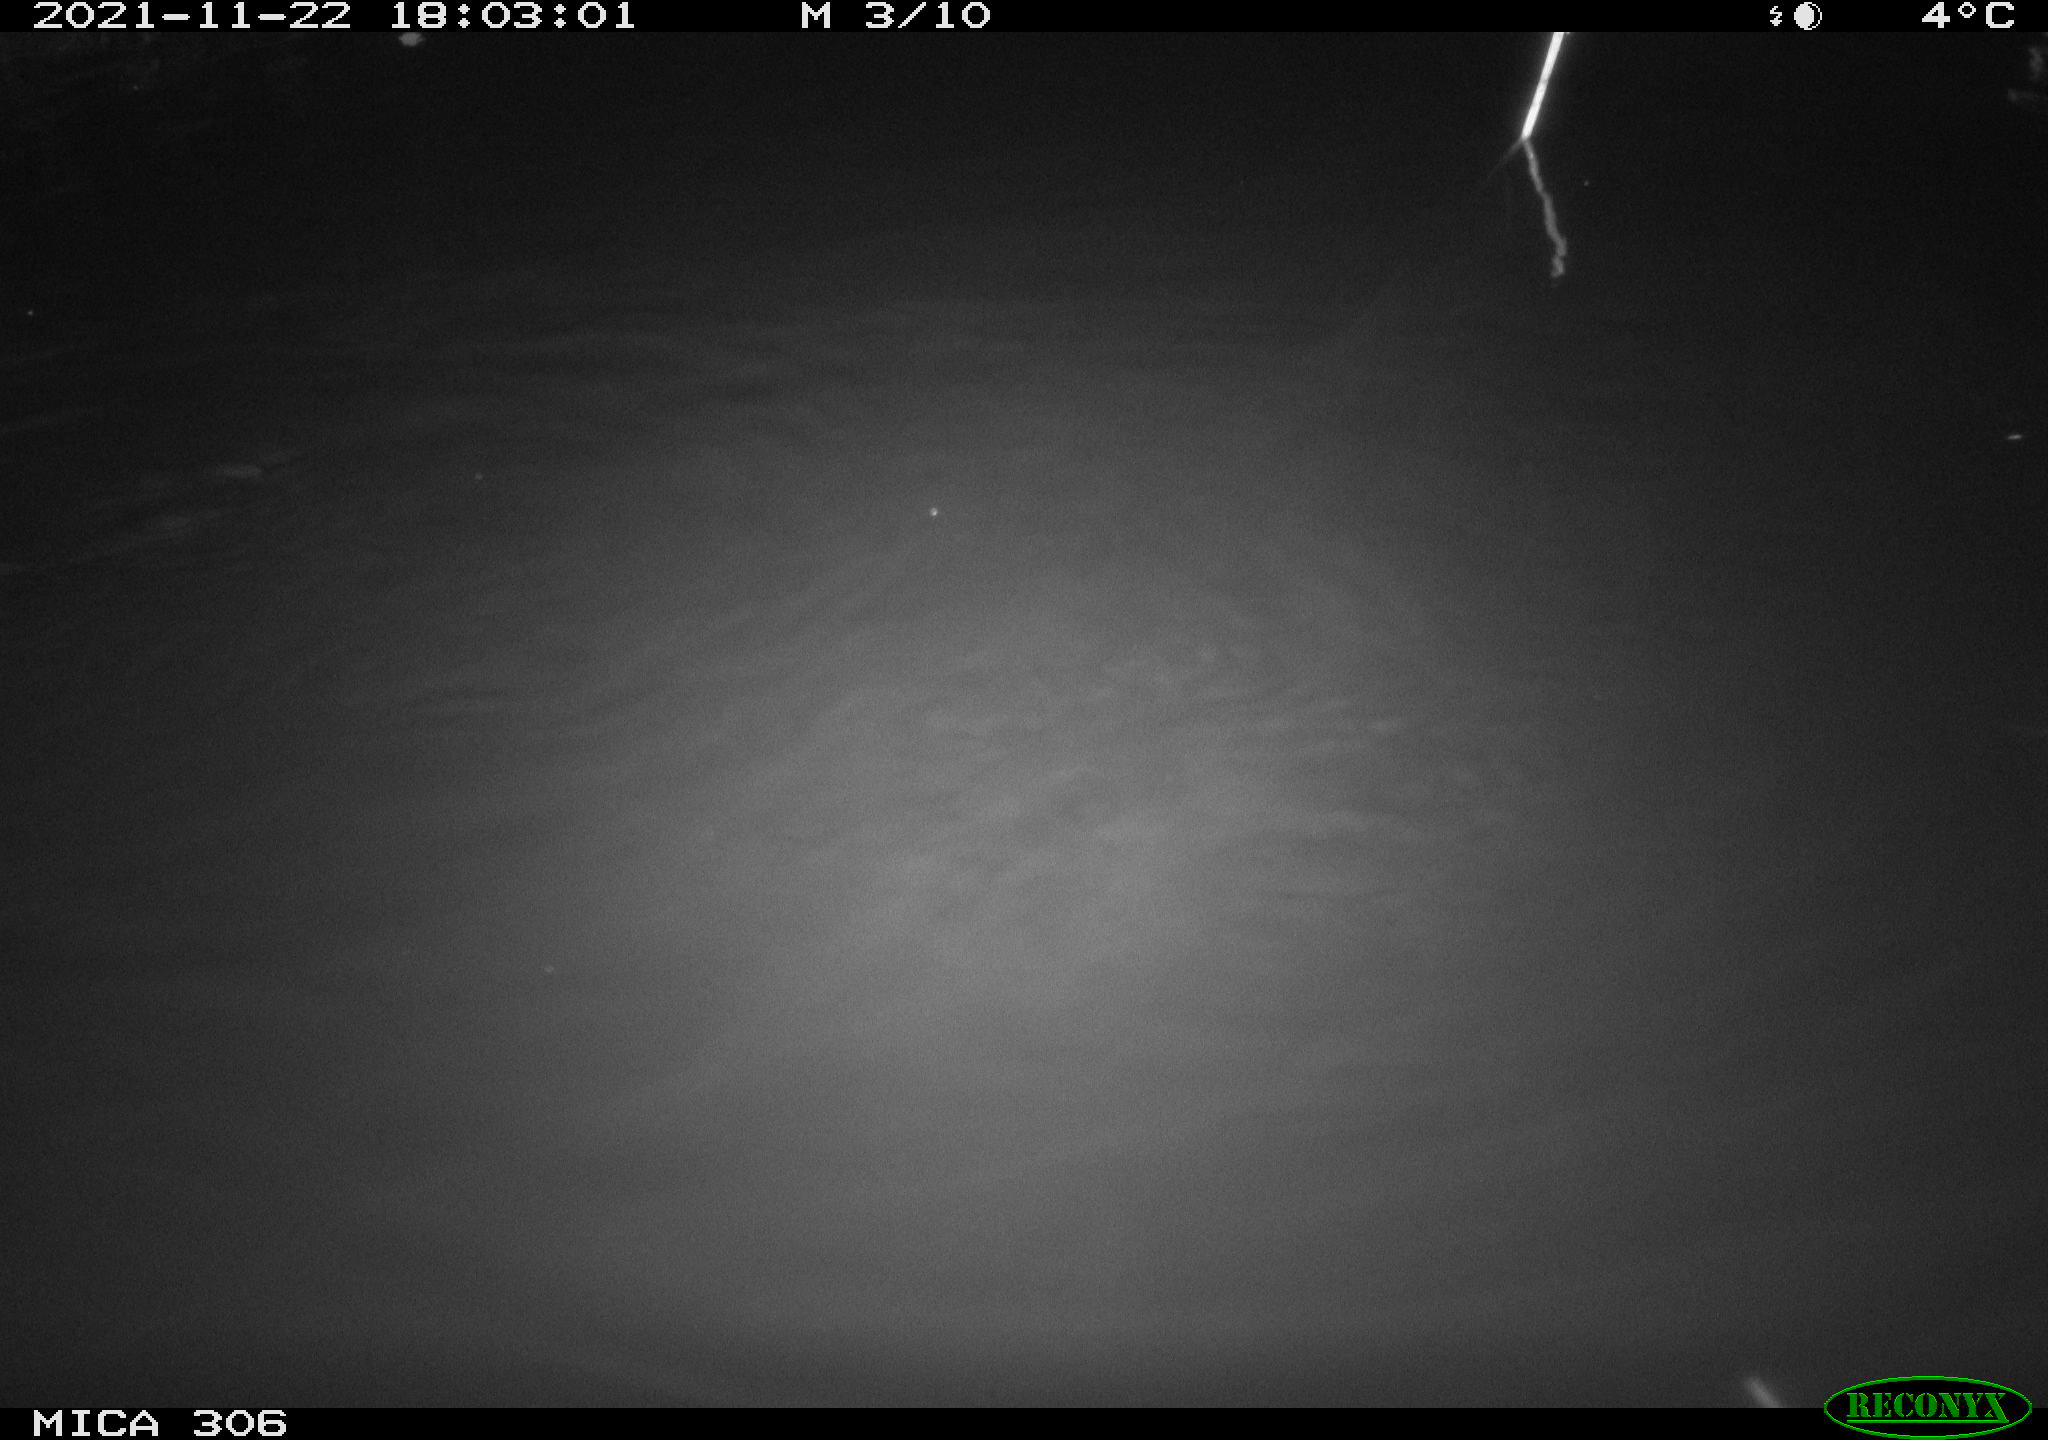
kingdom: Animalia
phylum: Chordata
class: Mammalia
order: Rodentia
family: Muridae
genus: Rattus
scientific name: Rattus norvegicus
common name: Brown rat
